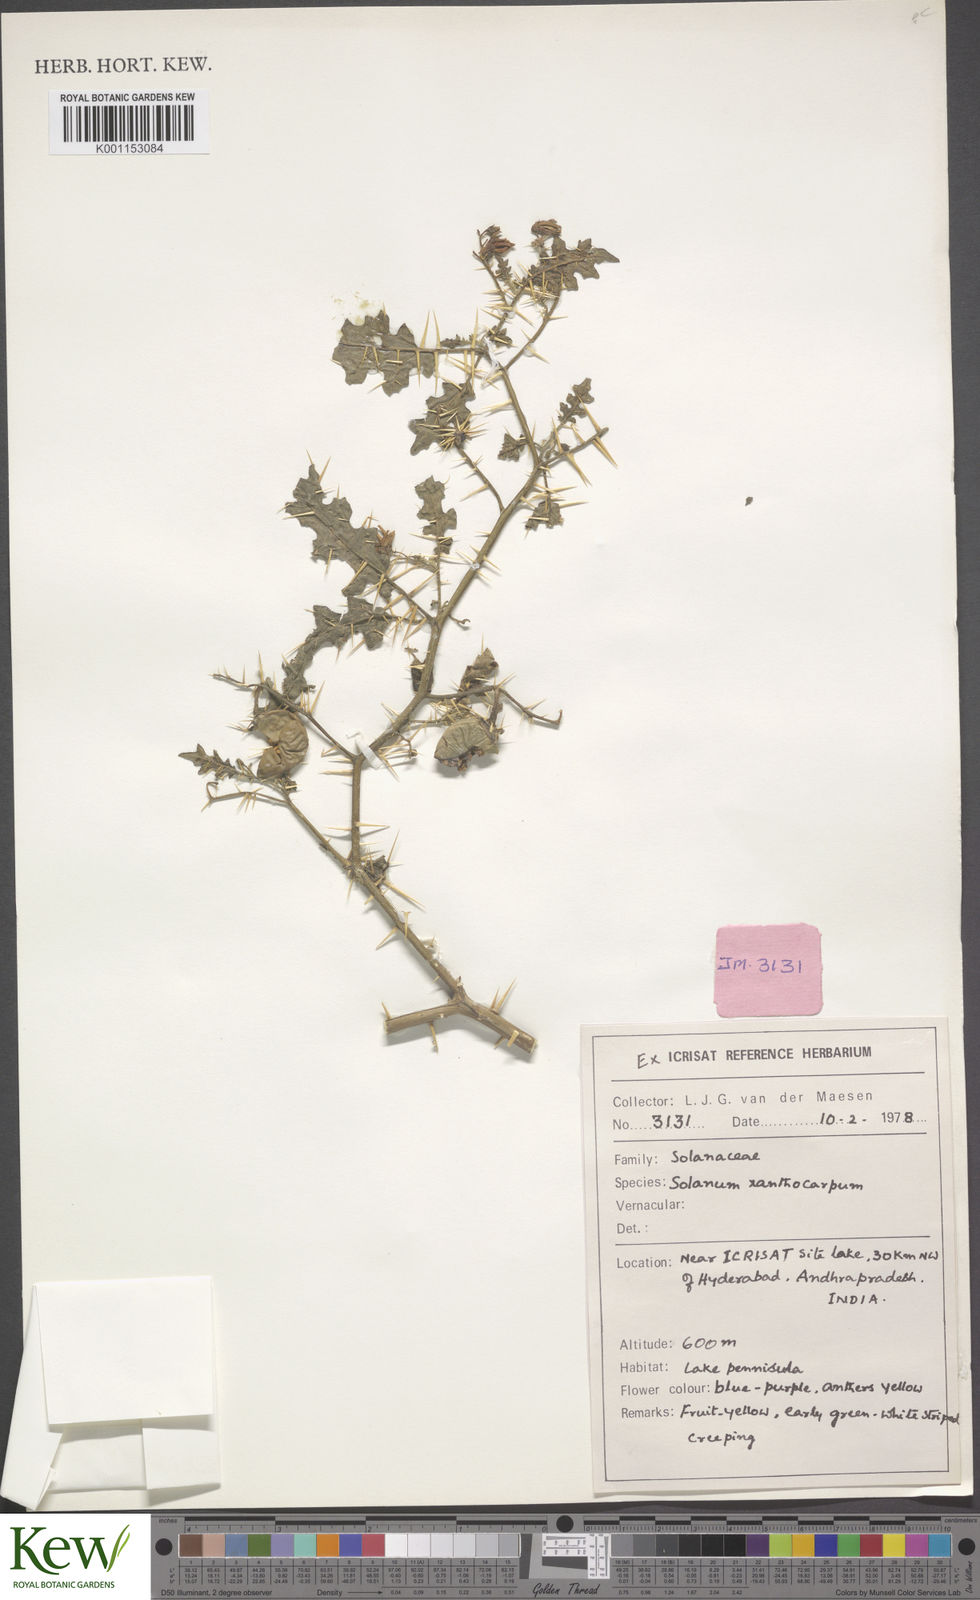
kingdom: Plantae
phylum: Tracheophyta
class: Magnoliopsida
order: Solanales
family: Solanaceae
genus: Solanum
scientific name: Solanum virginianum
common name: Surattense nightshade
